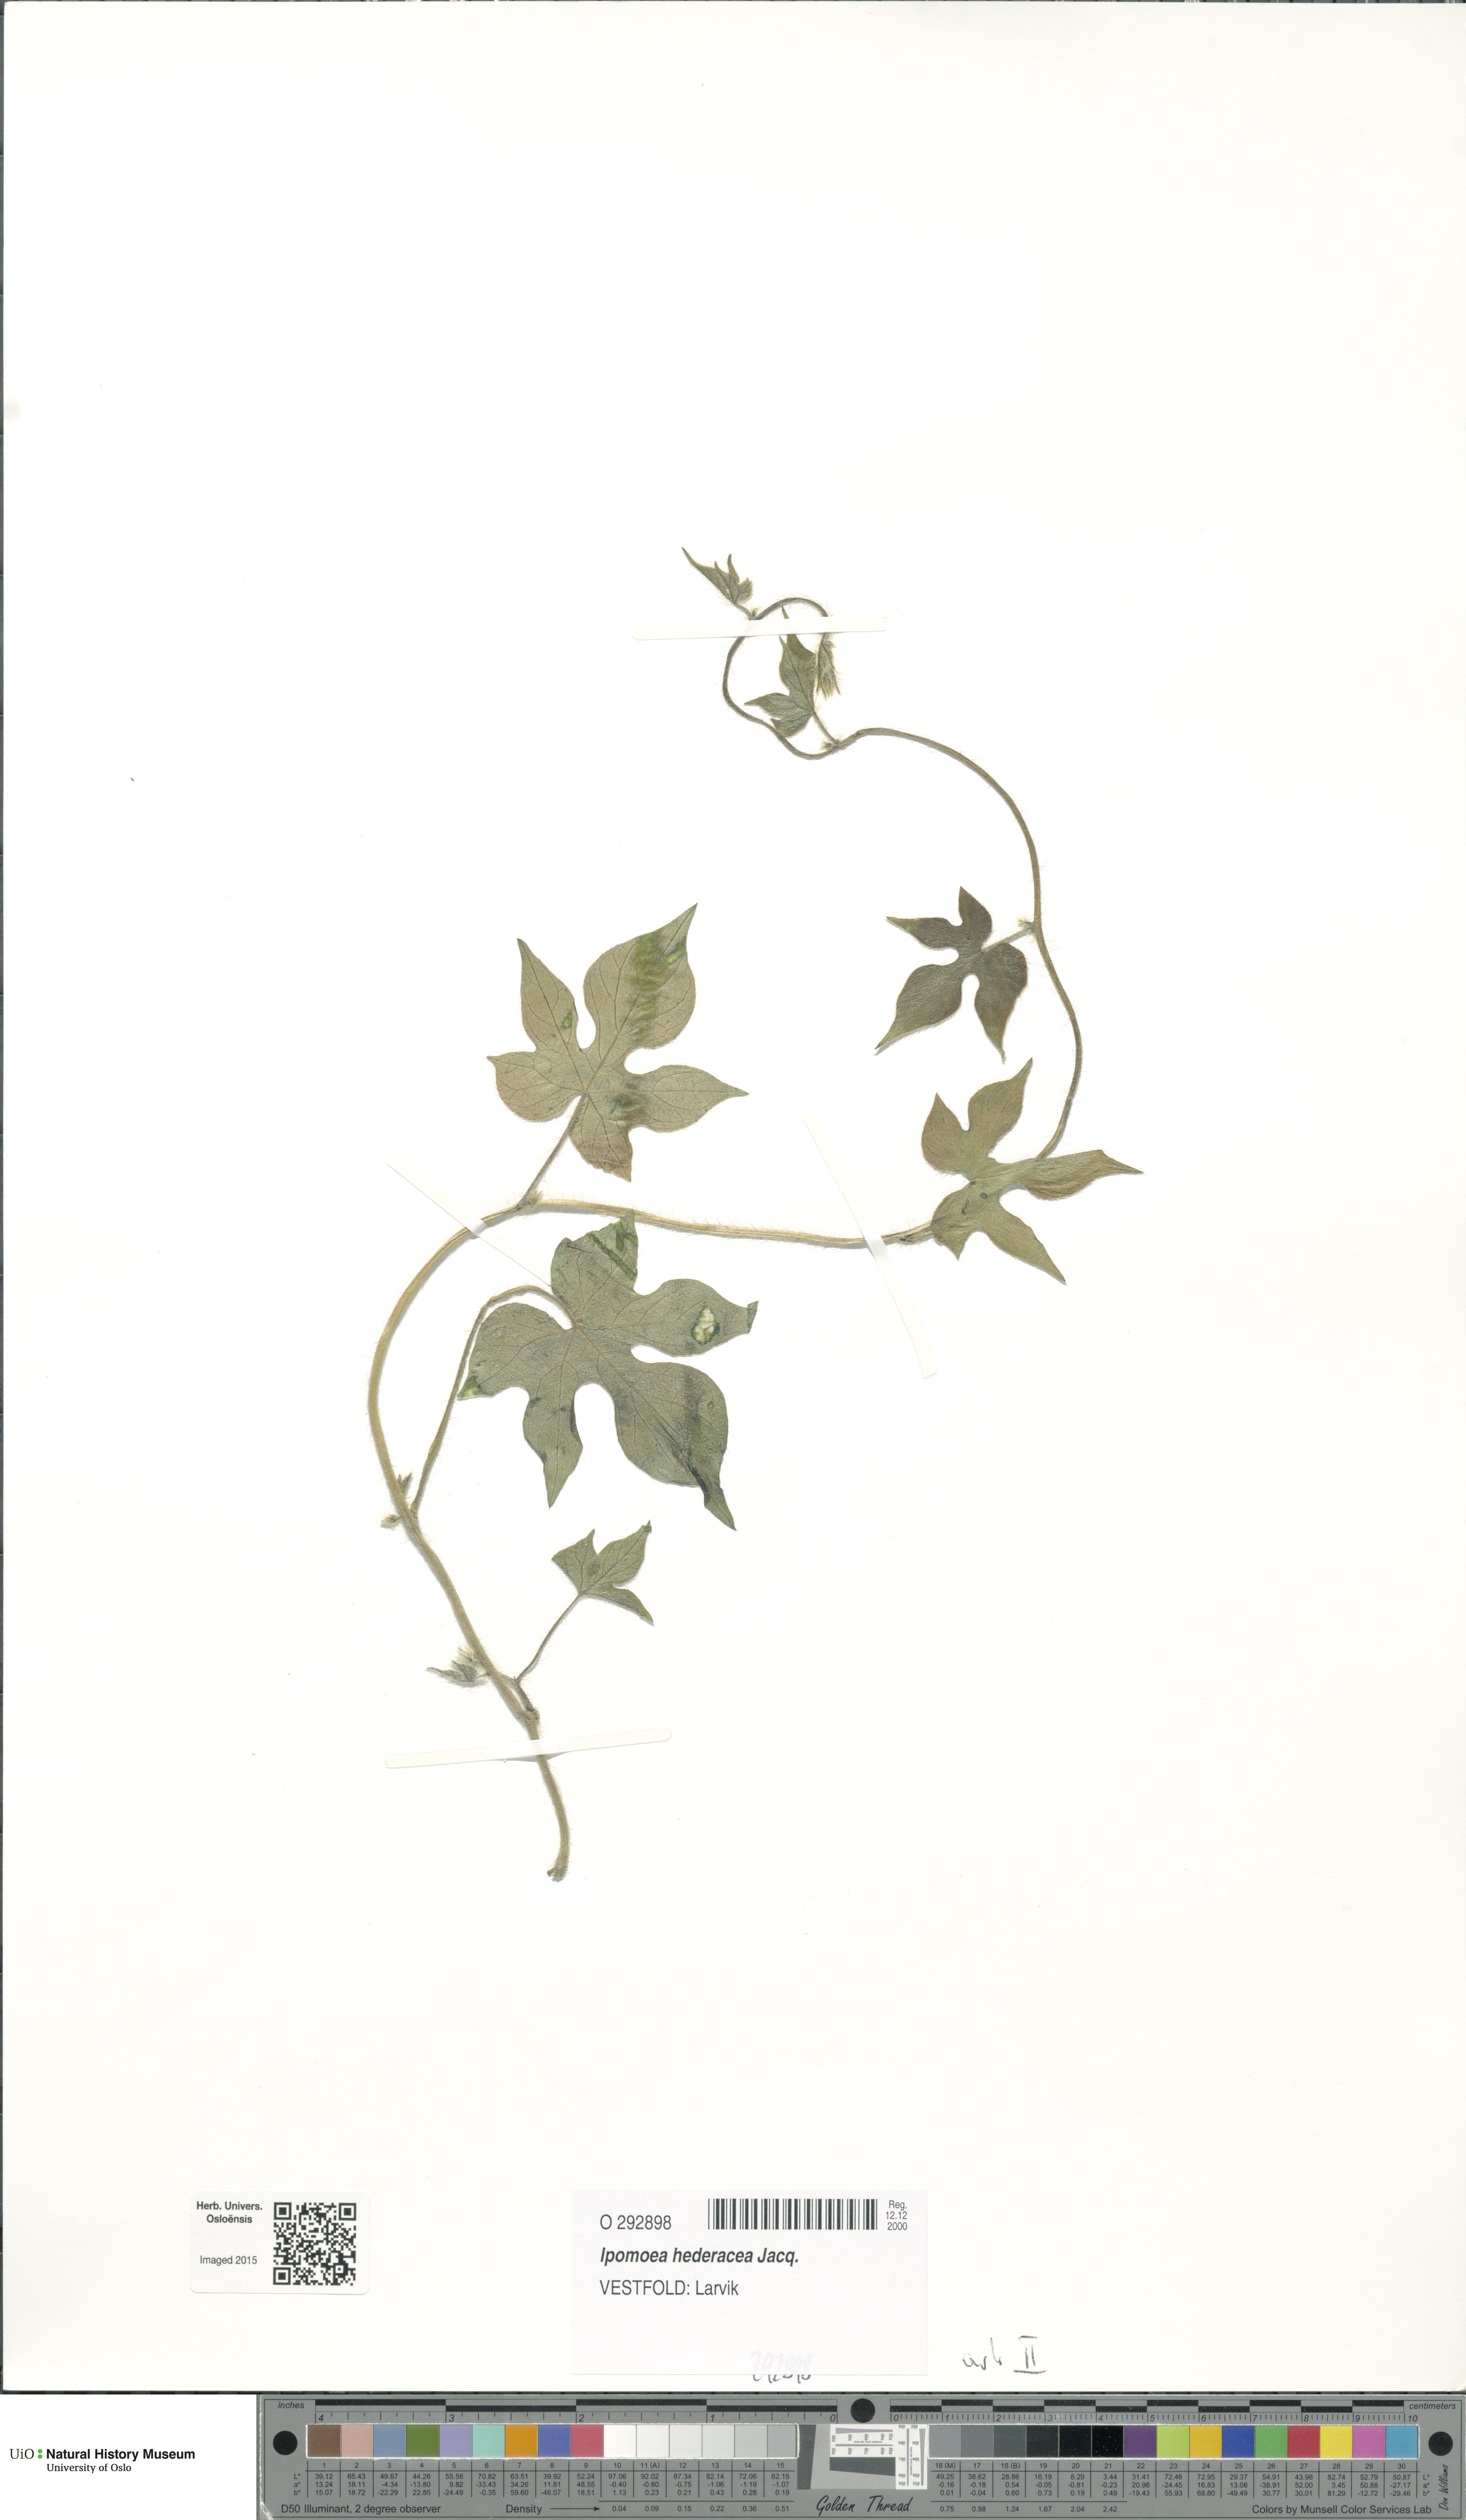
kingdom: Plantae
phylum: Tracheophyta
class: Magnoliopsida
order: Solanales
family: Convolvulaceae
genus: Ipomoea
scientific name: Ipomoea nil
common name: Japanese morning-glory
